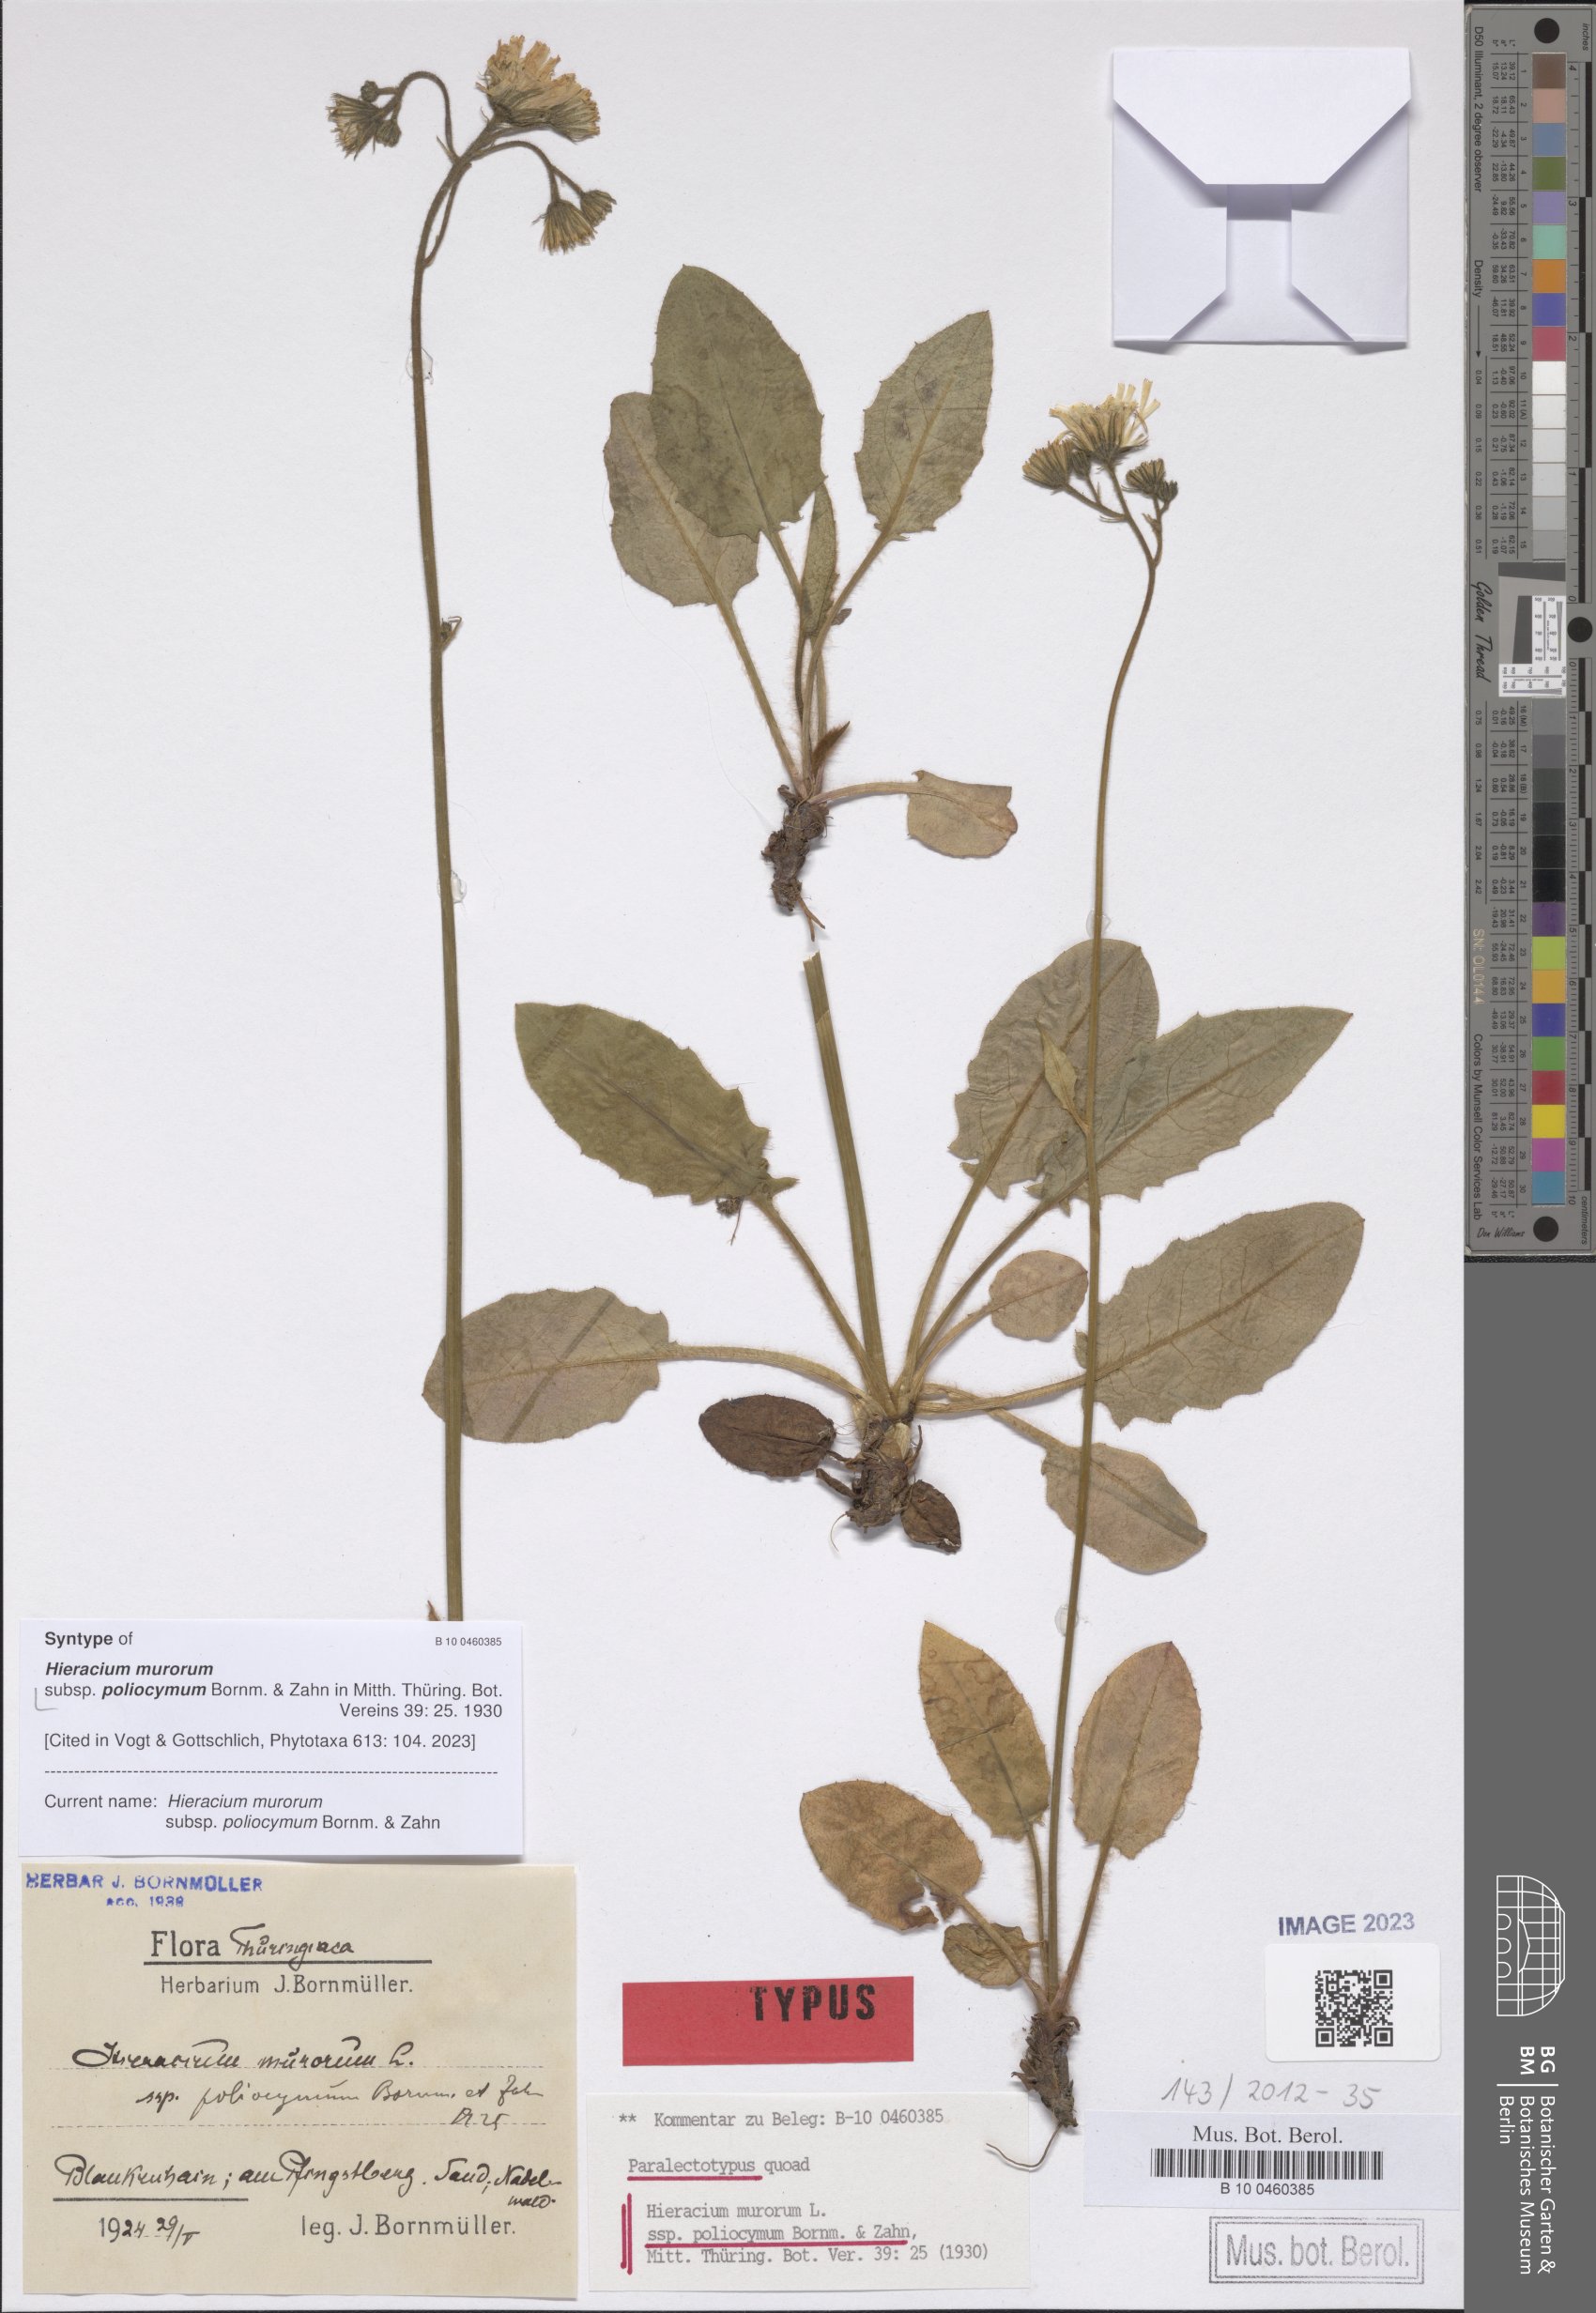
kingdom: Plantae
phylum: Tracheophyta
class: Magnoliopsida
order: Asterales
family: Asteraceae
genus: Hieracium
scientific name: Hieracium murorum
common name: Wall hawkweed
